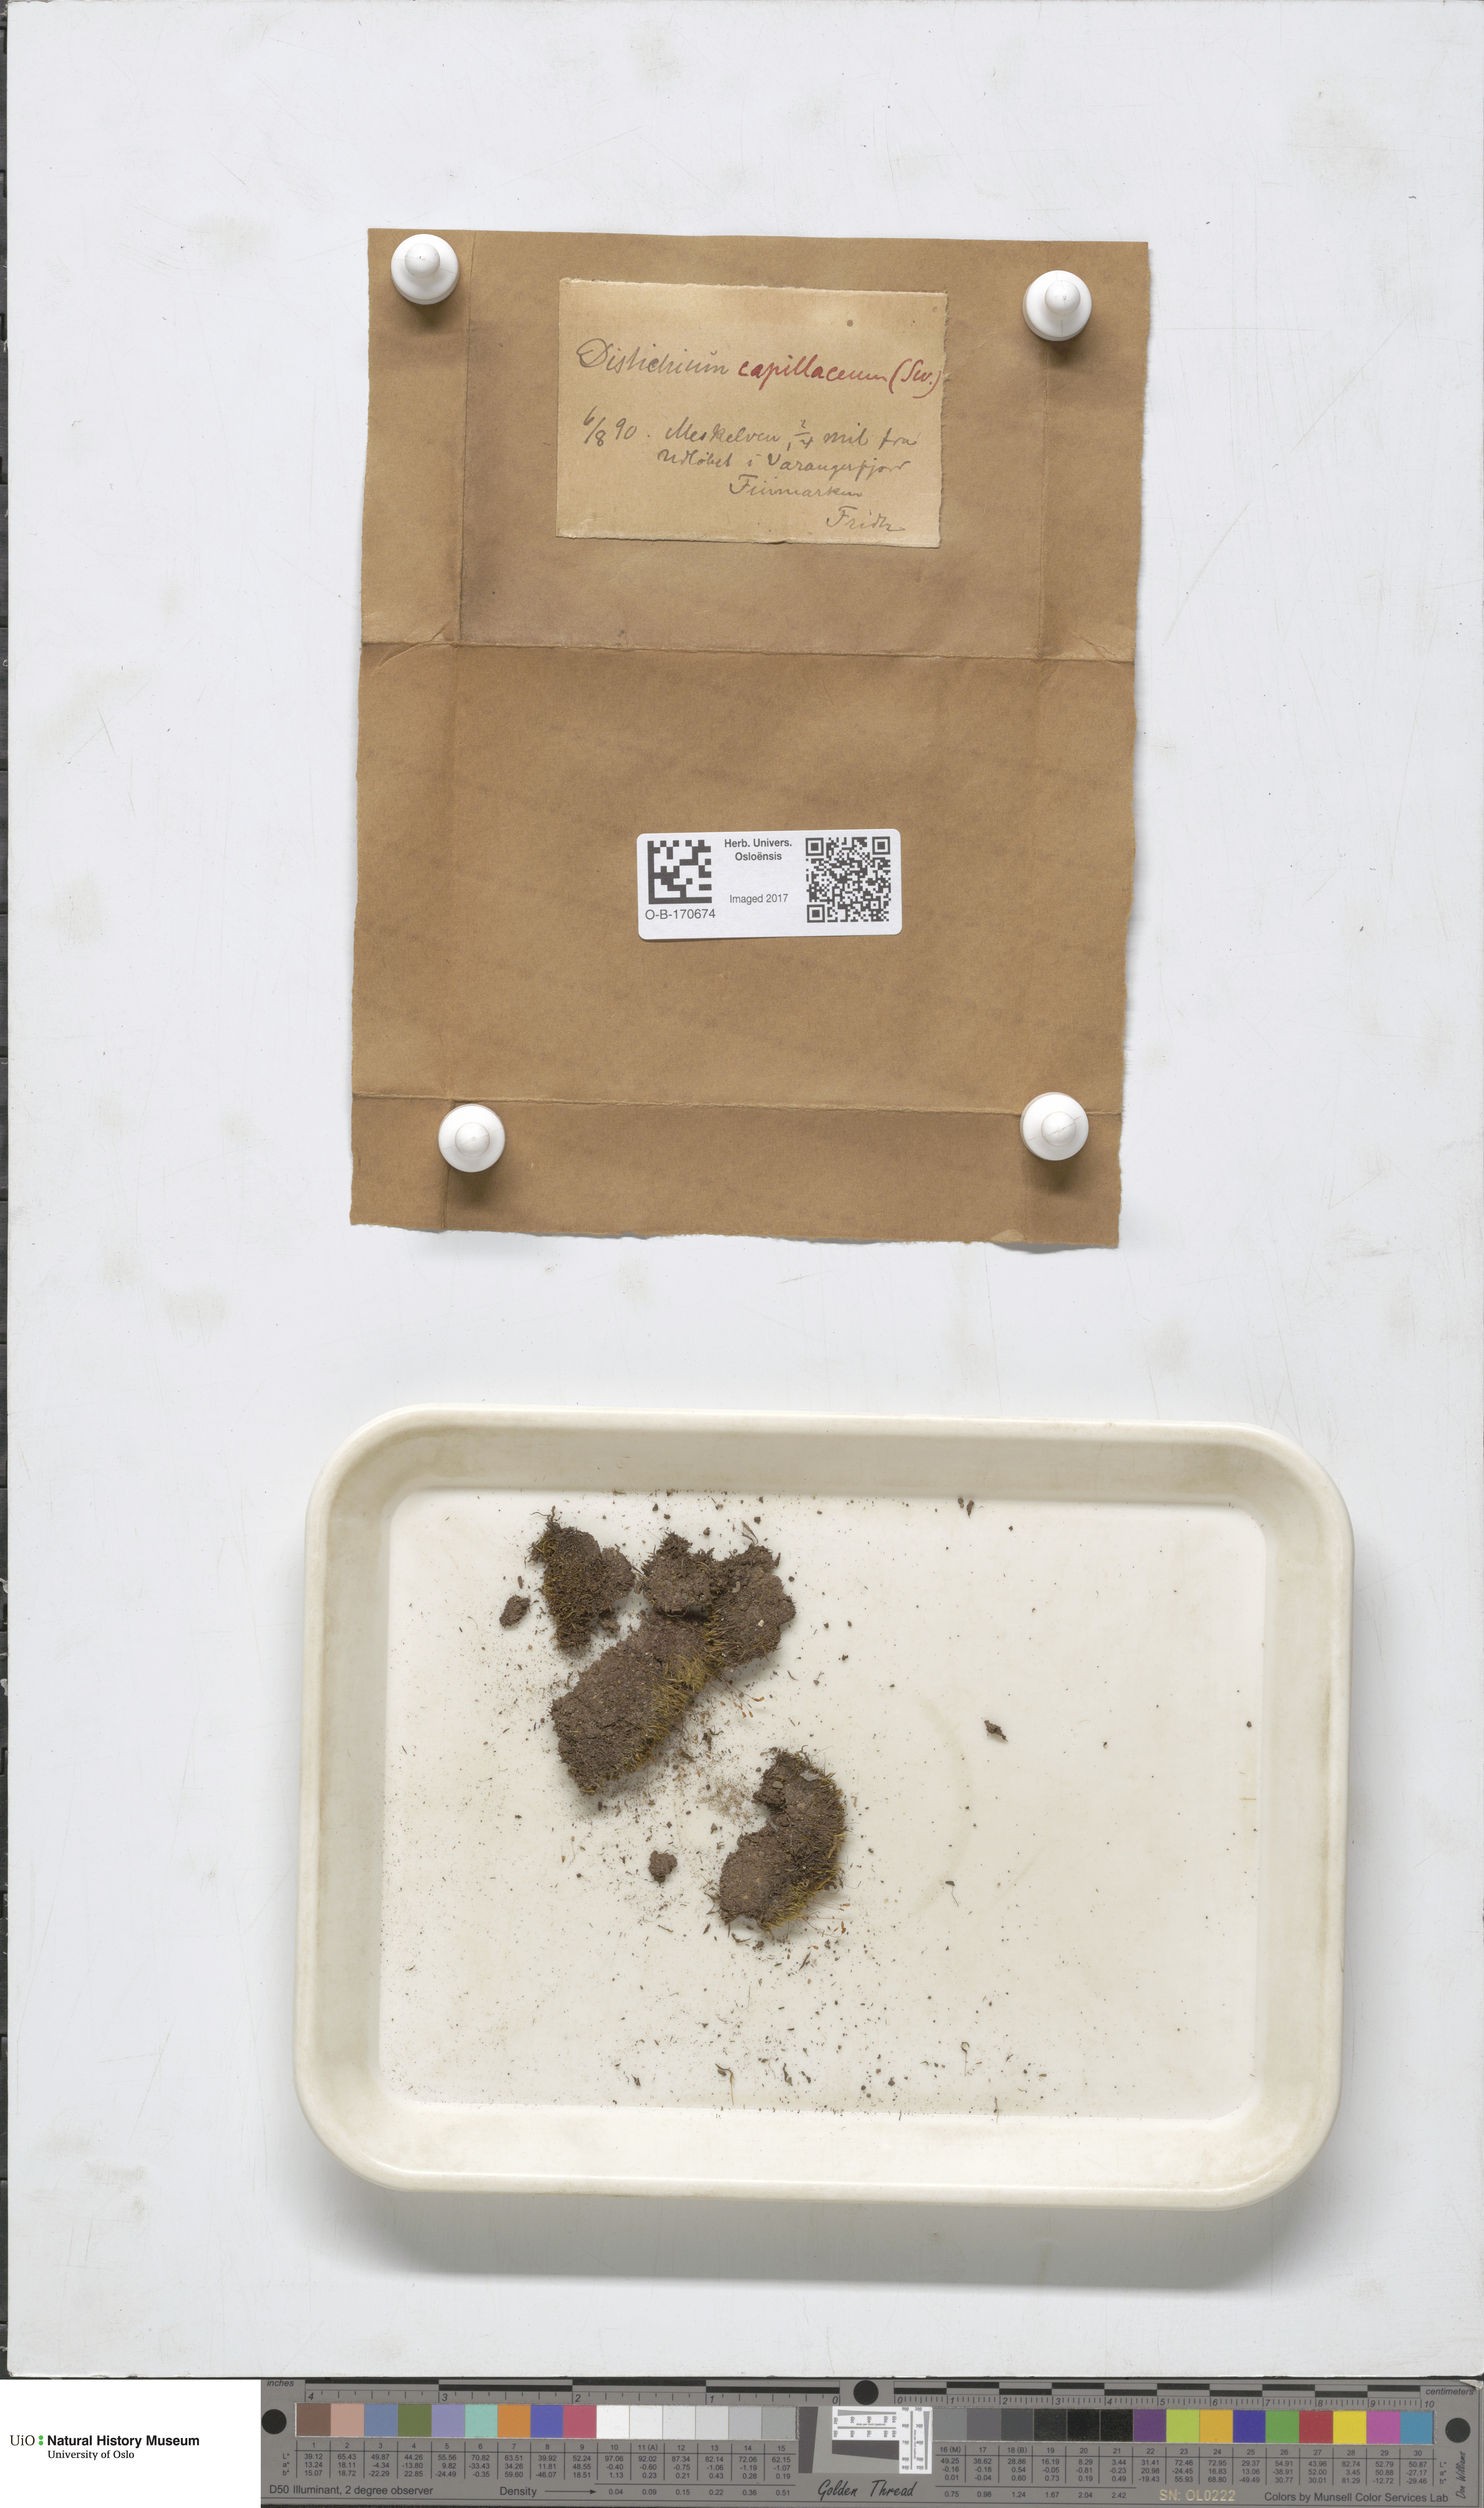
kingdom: Plantae
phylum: Bryophyta
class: Bryopsida
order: Scouleriales
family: Distichiaceae
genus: Distichium
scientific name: Distichium capillaceum
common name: Erect-fruited iris moss
